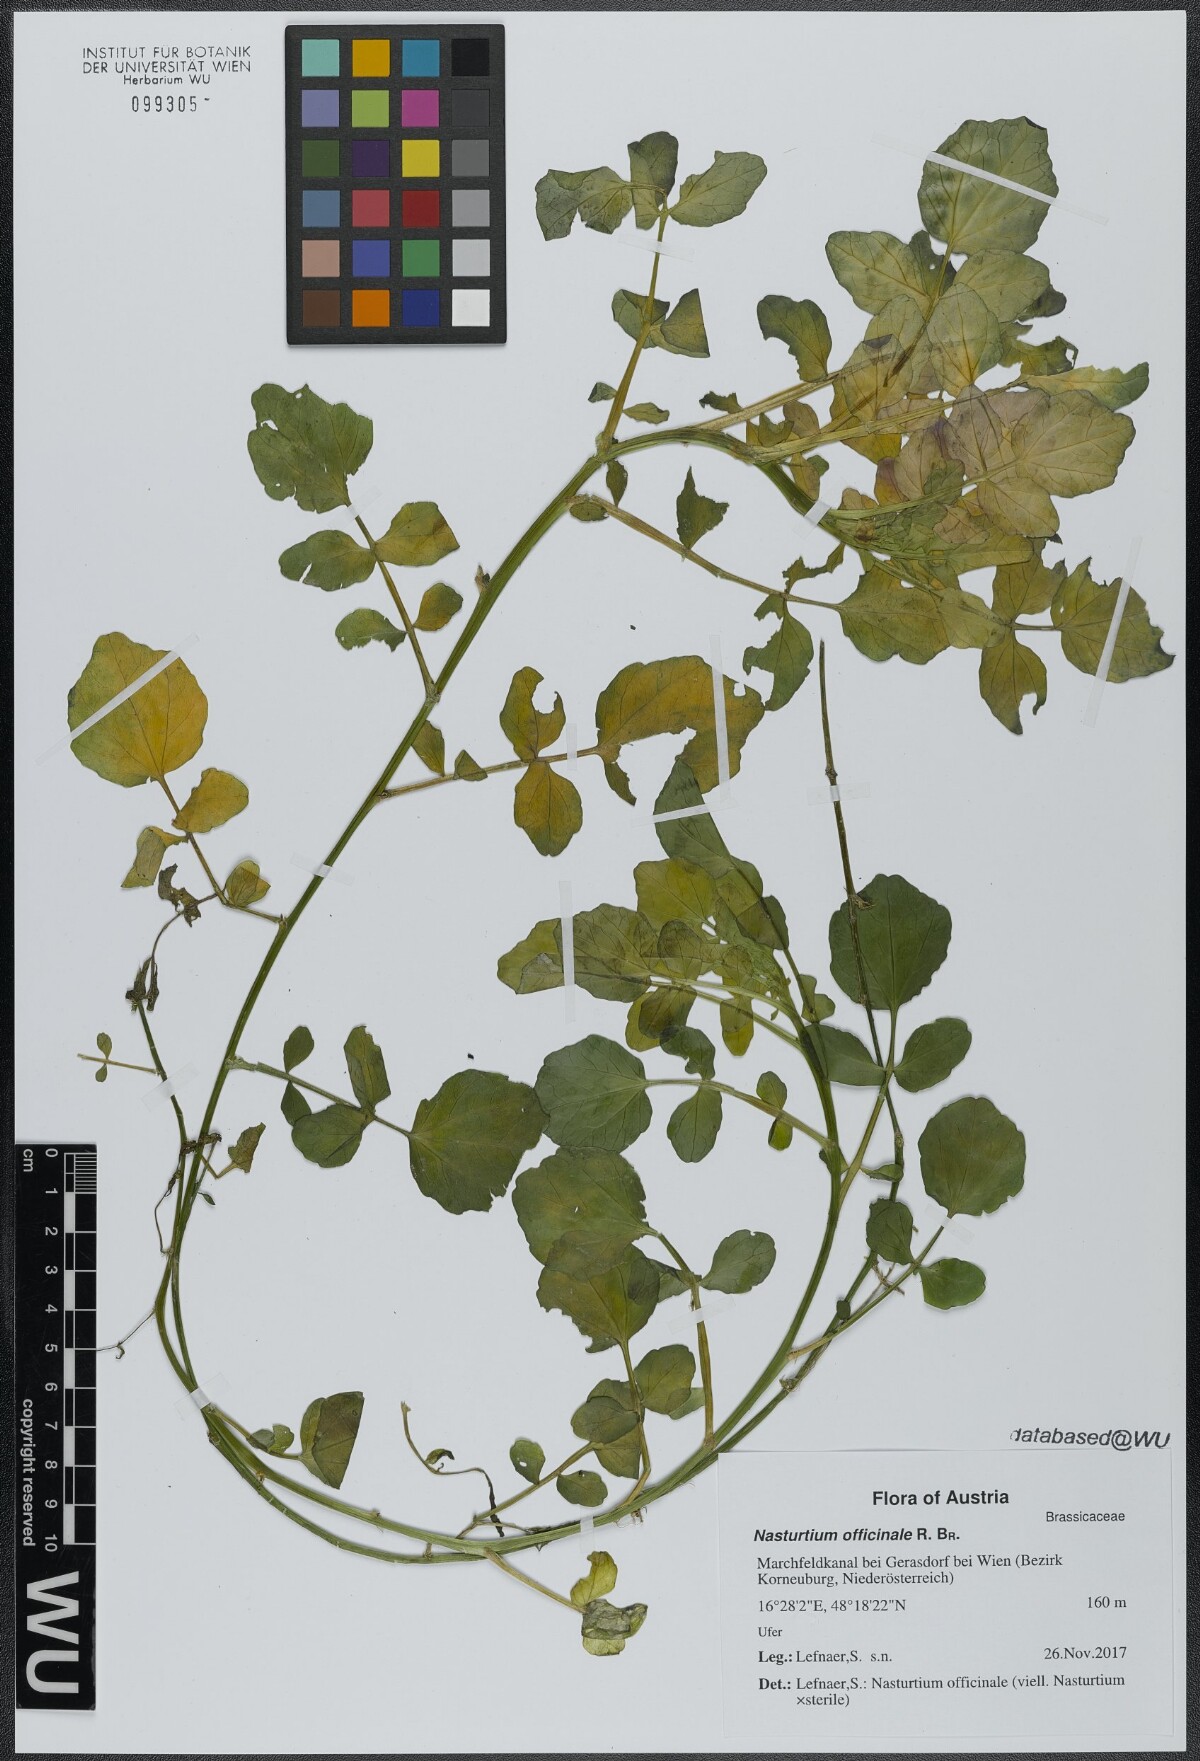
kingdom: Plantae
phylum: Tracheophyta
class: Magnoliopsida
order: Brassicales
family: Brassicaceae
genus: Nasturtium
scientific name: Nasturtium officinale
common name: Watercress
